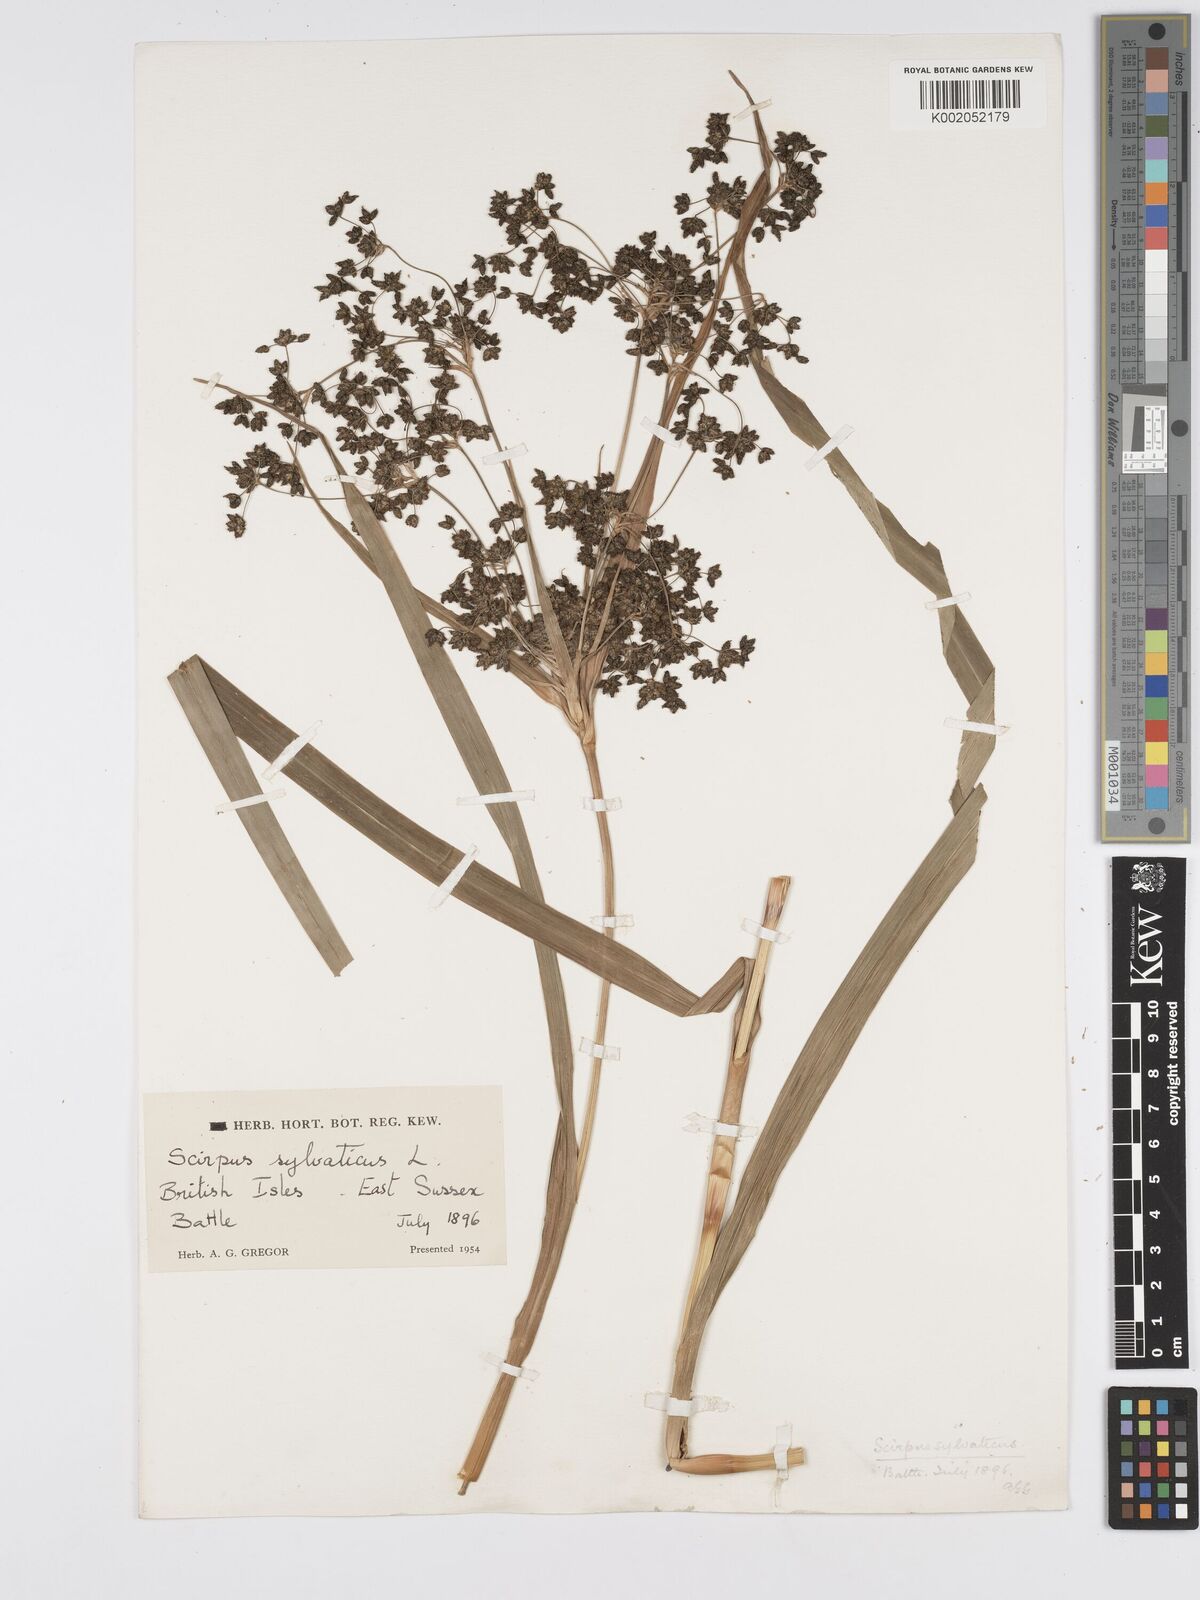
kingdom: Plantae
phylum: Tracheophyta
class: Liliopsida
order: Poales
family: Cyperaceae
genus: Scirpus
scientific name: Scirpus sylvaticus
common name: Wood club-rush
